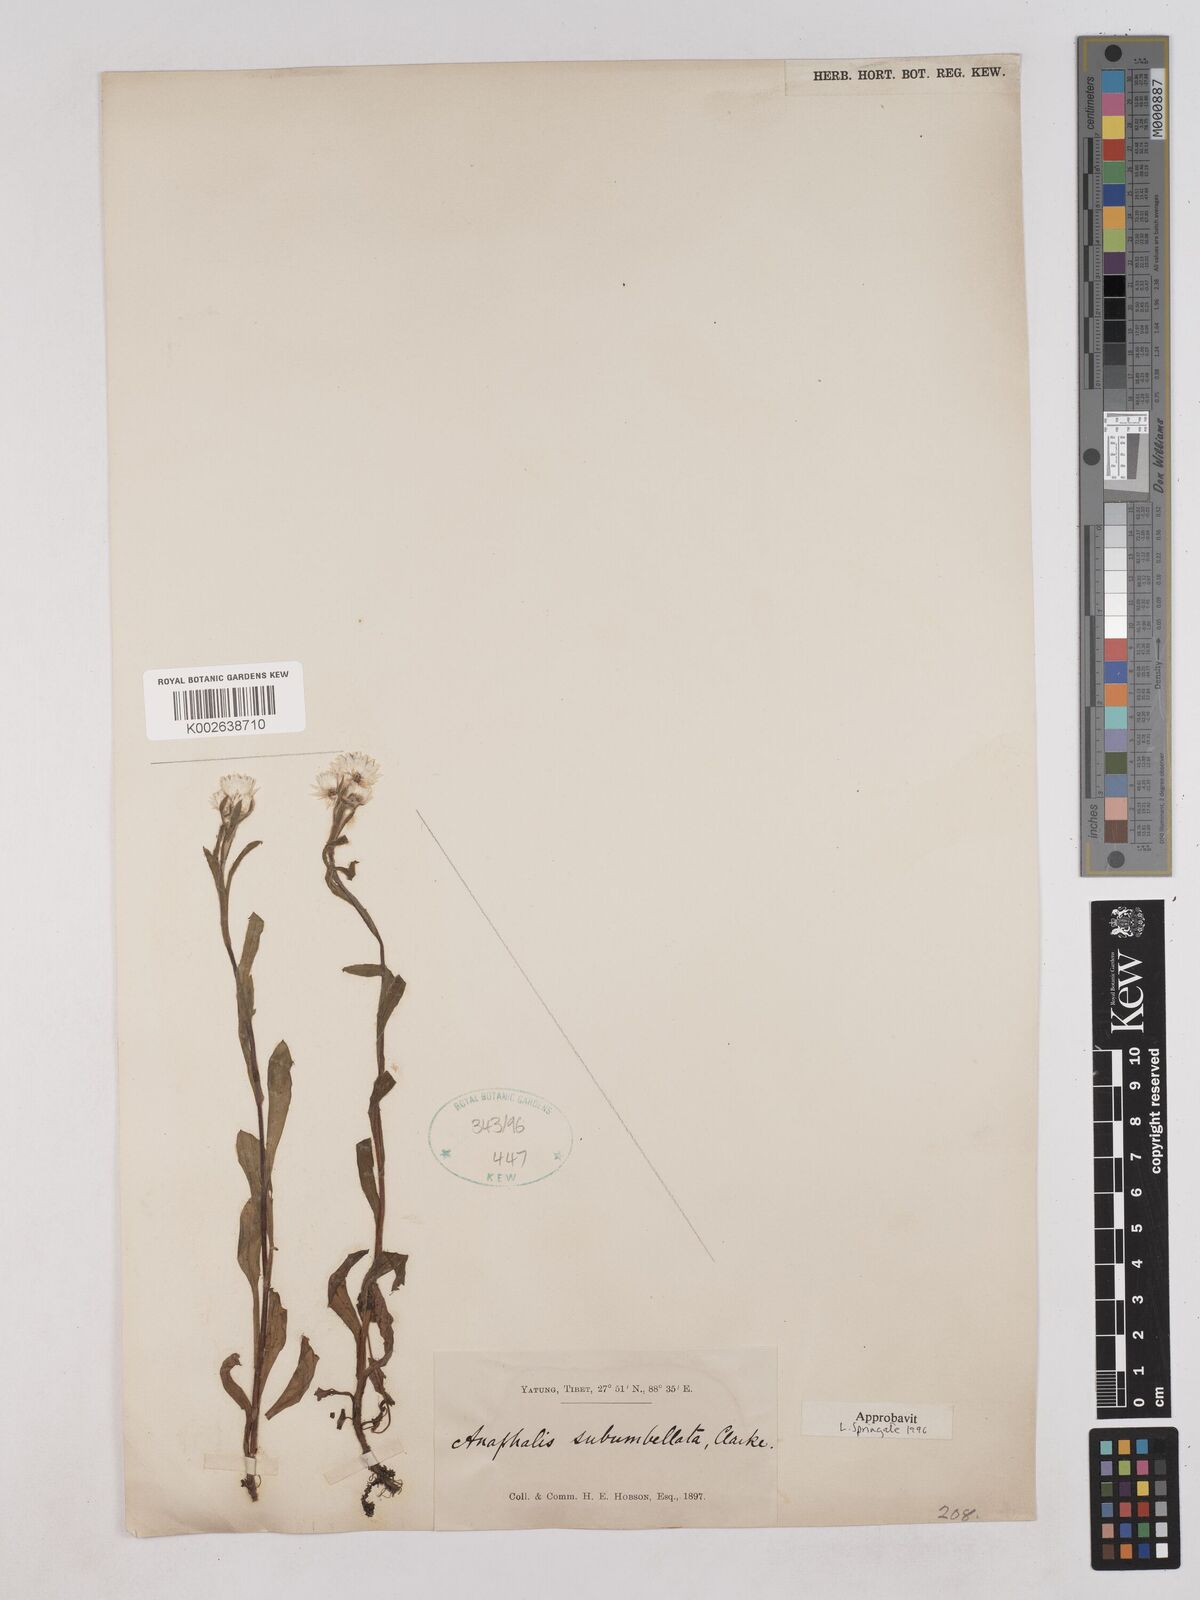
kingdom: Plantae
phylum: Tracheophyta
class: Magnoliopsida
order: Asterales
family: Asteraceae
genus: Anaphalis
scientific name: Anaphalis subumbellata
